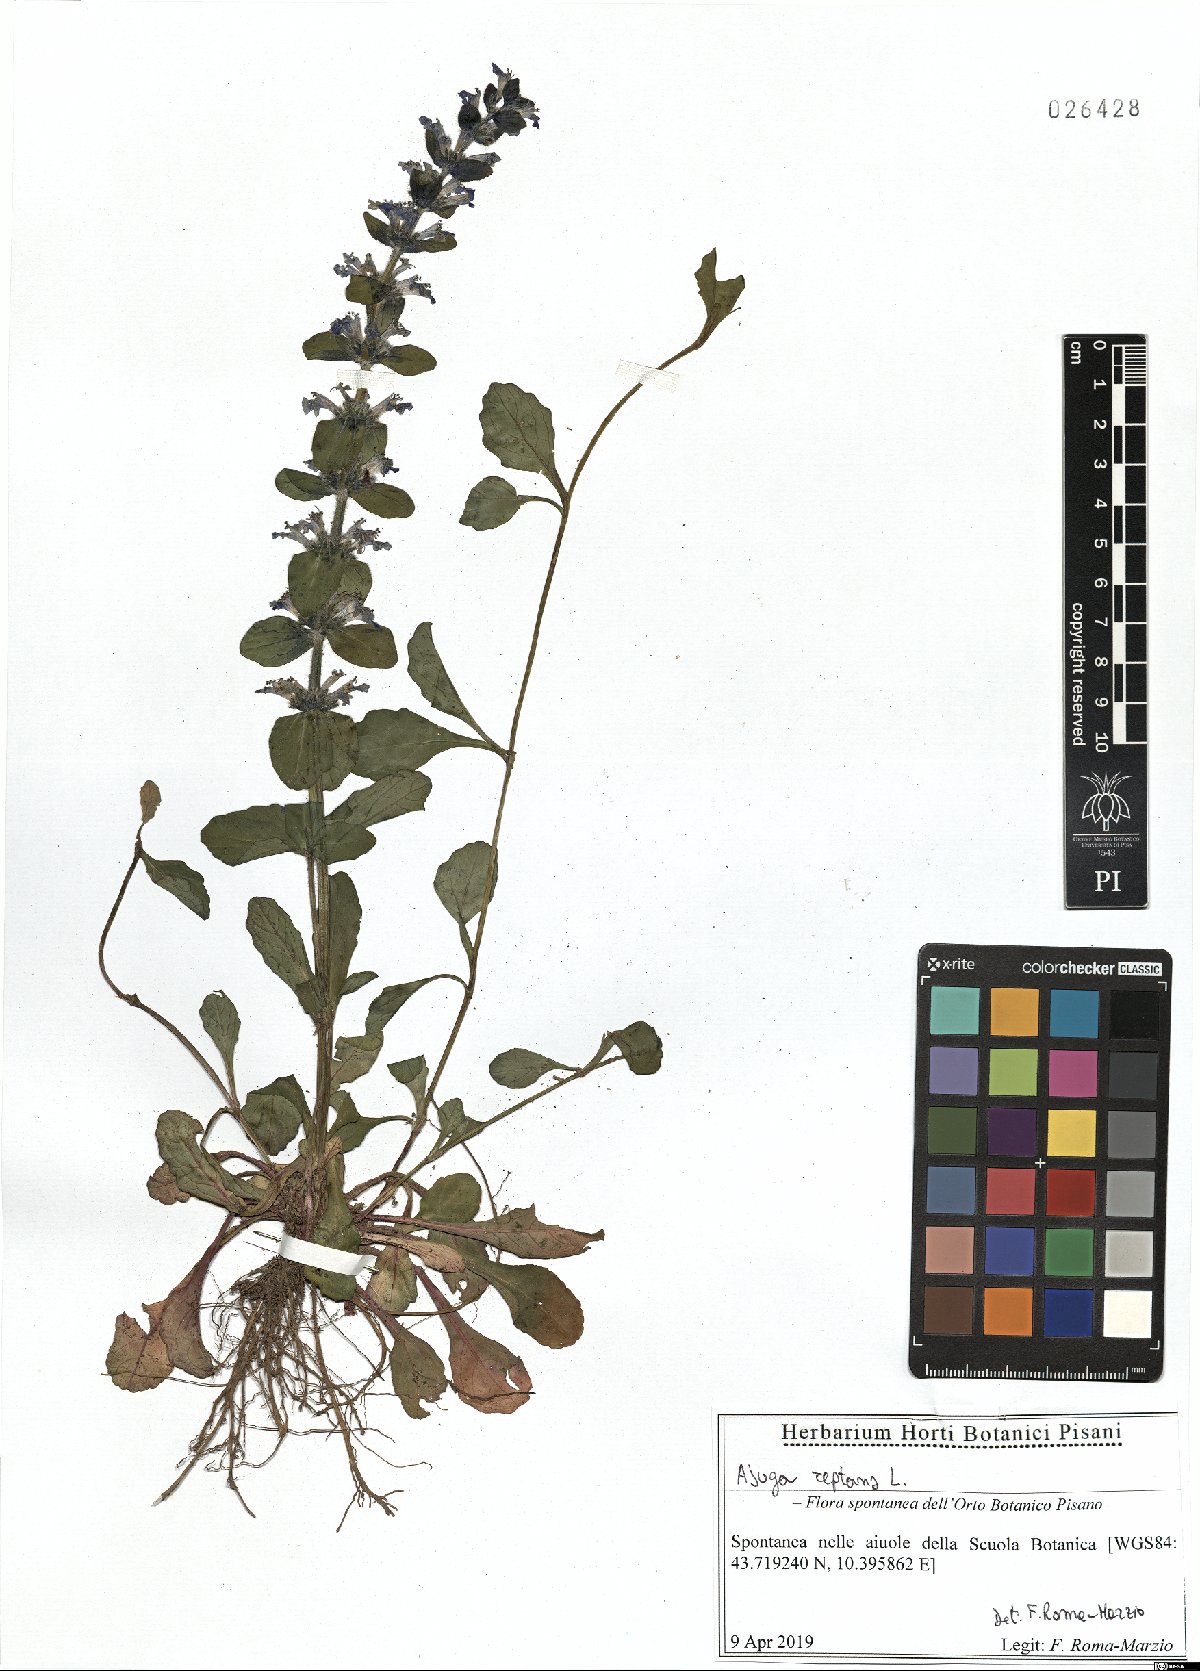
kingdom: Plantae
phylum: Tracheophyta
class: Magnoliopsida
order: Lamiales
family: Lamiaceae
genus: Ajuga
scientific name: Ajuga reptans
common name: Bugle
